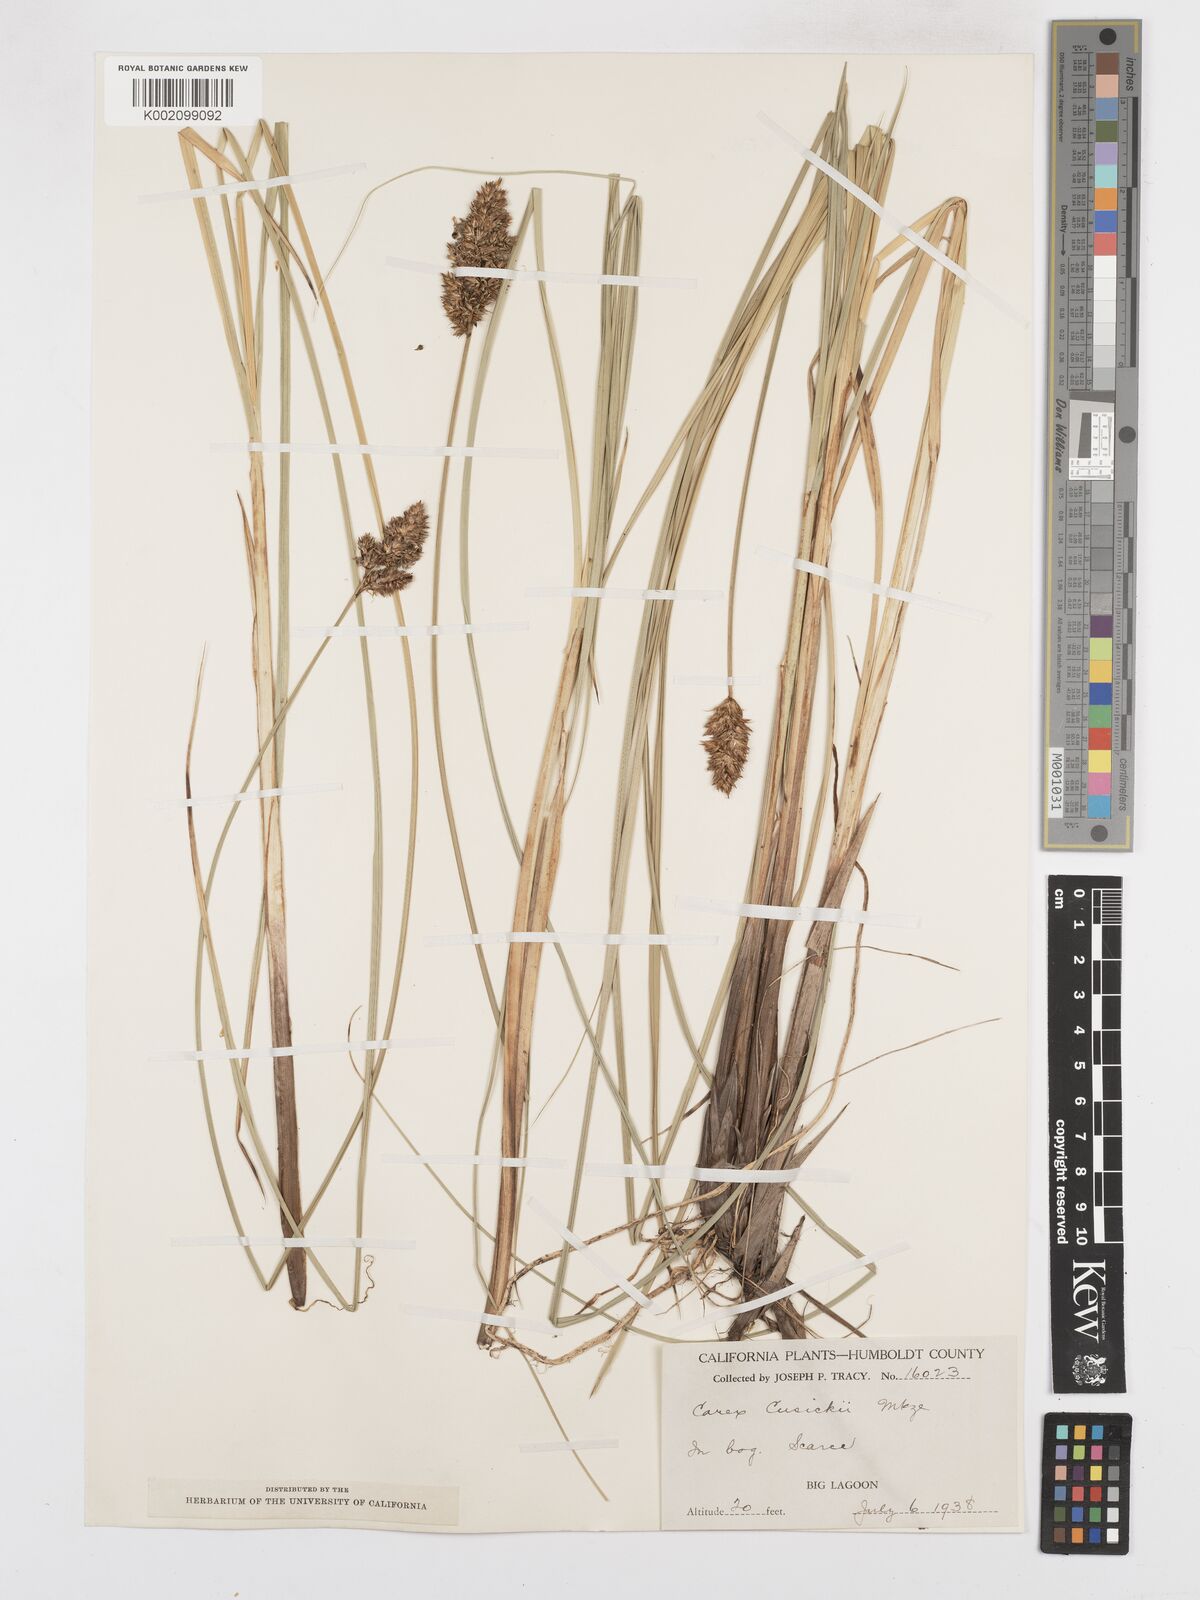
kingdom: Plantae
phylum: Tracheophyta
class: Liliopsida
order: Poales
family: Cyperaceae
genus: Carex
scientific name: Carex cusickii
